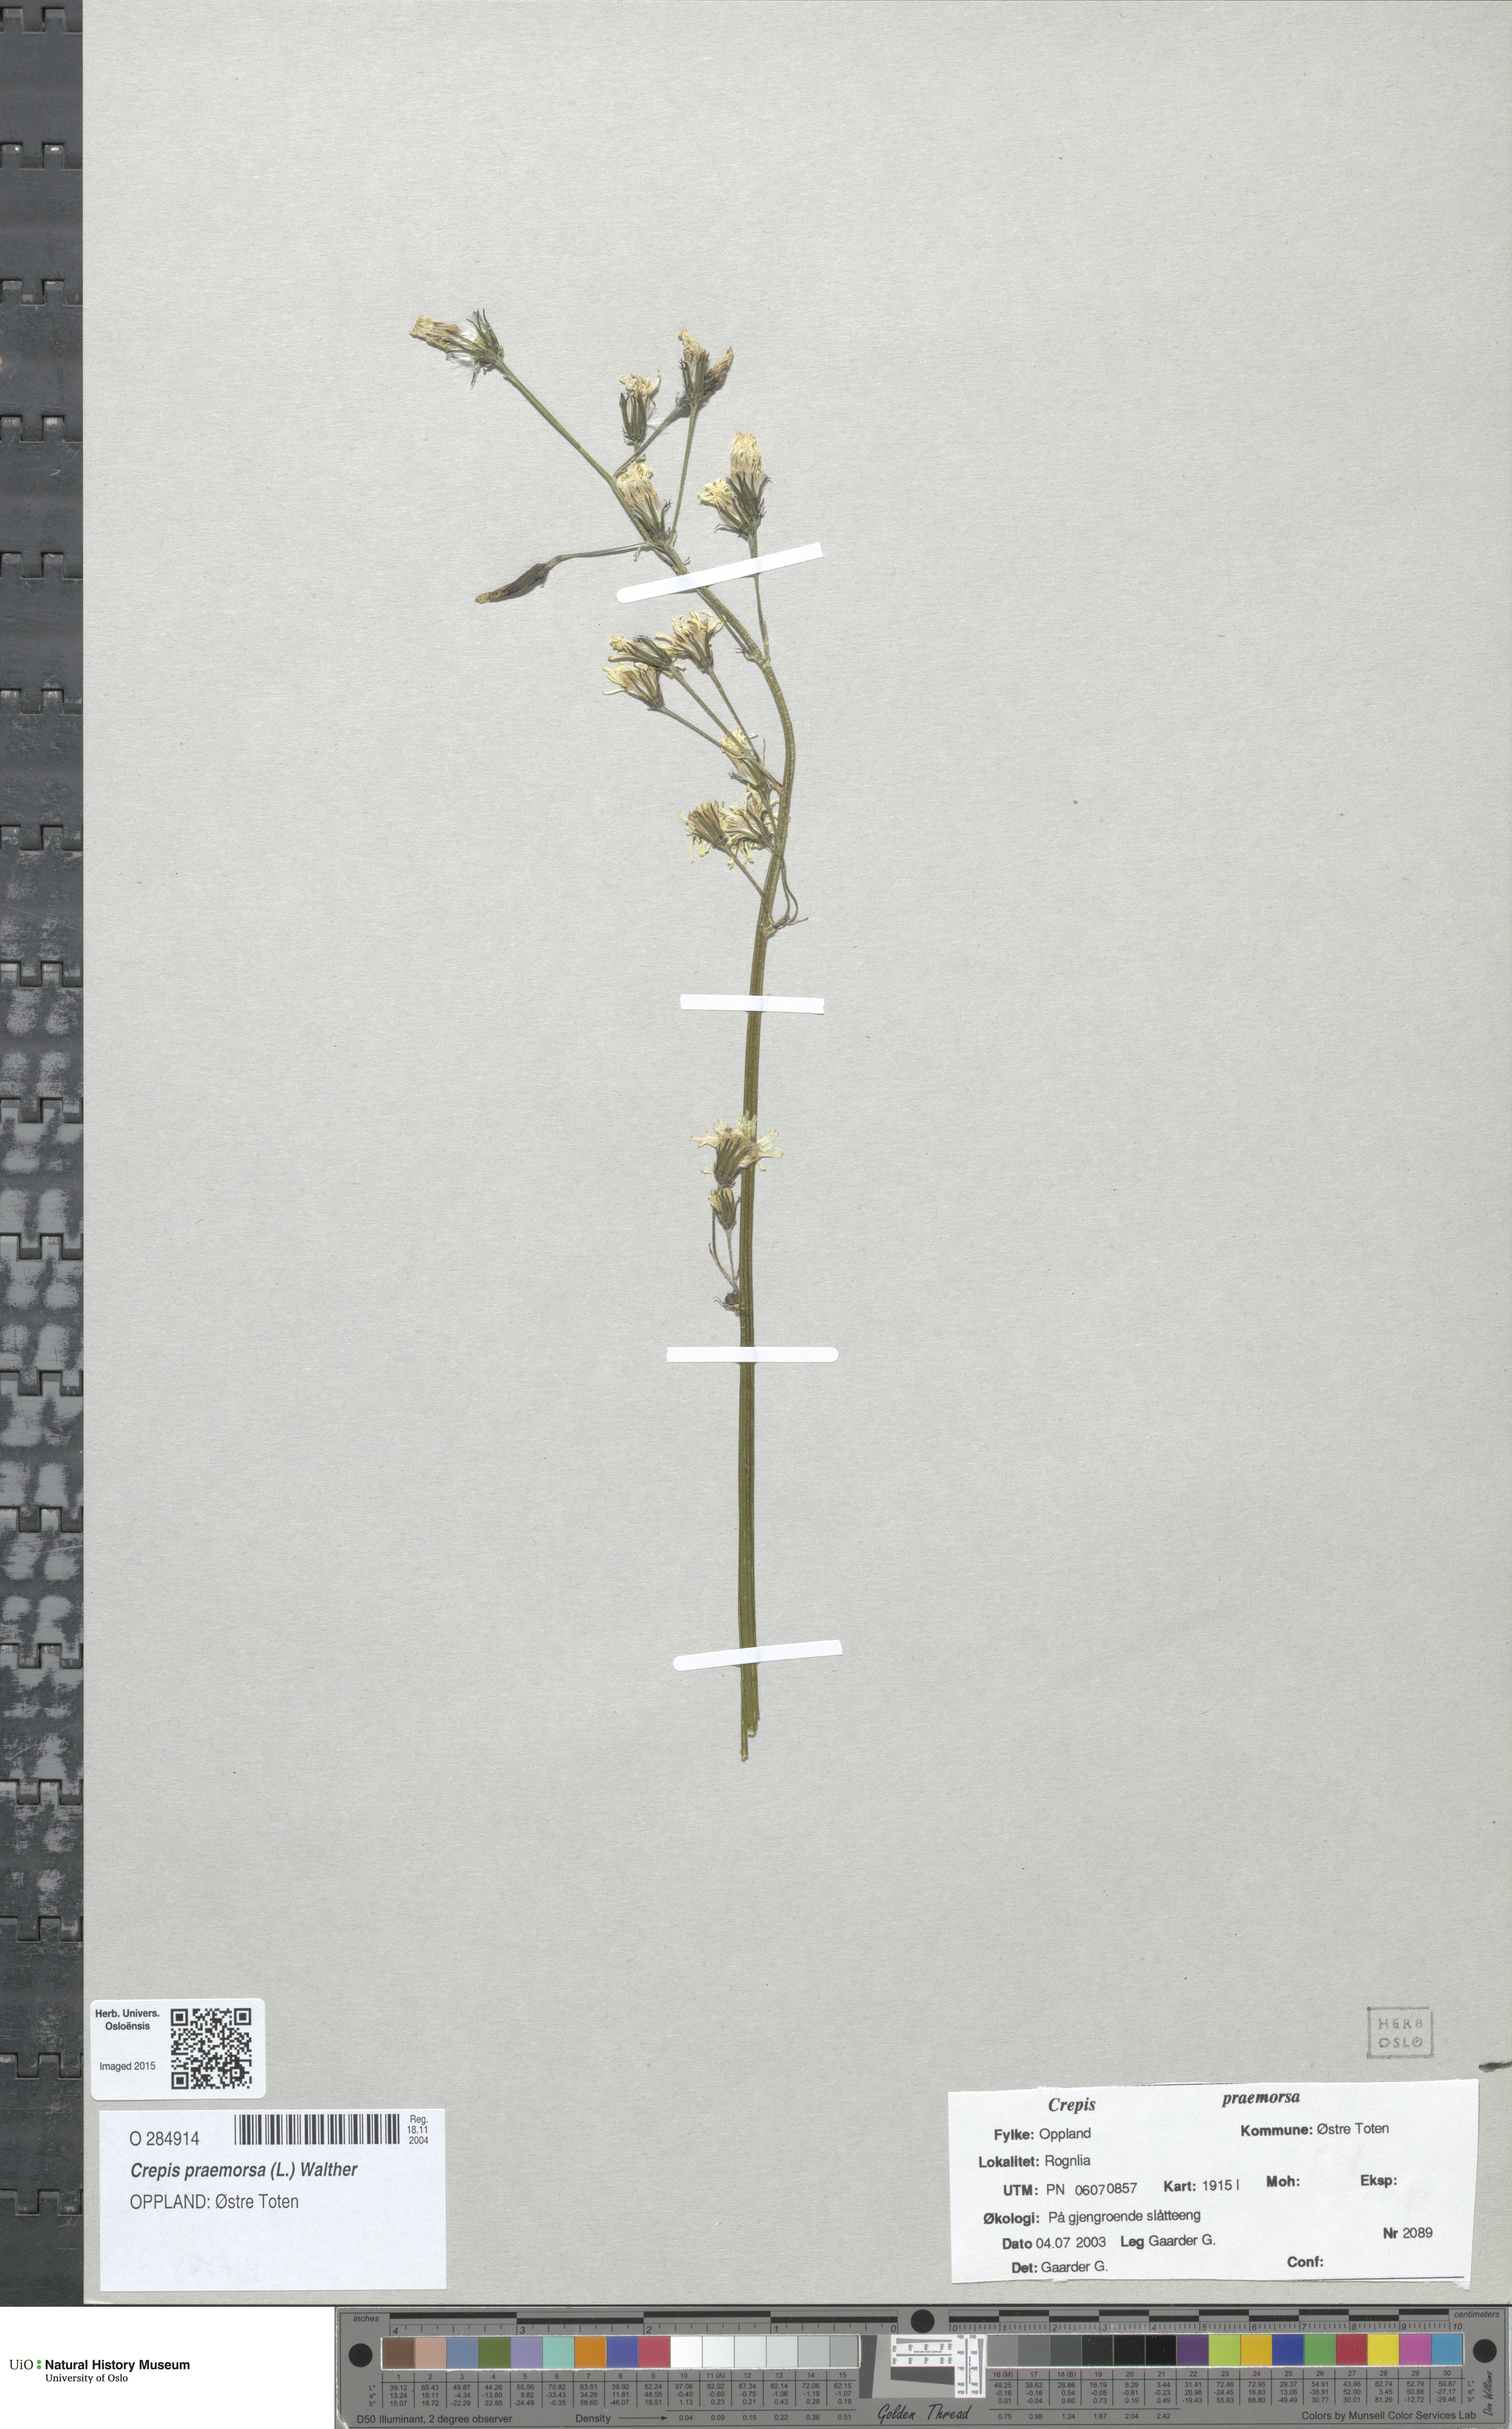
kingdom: Plantae
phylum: Tracheophyta
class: Magnoliopsida
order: Asterales
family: Asteraceae
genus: Crepis
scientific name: Crepis praemorsa
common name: Leafless hawk's-beard
